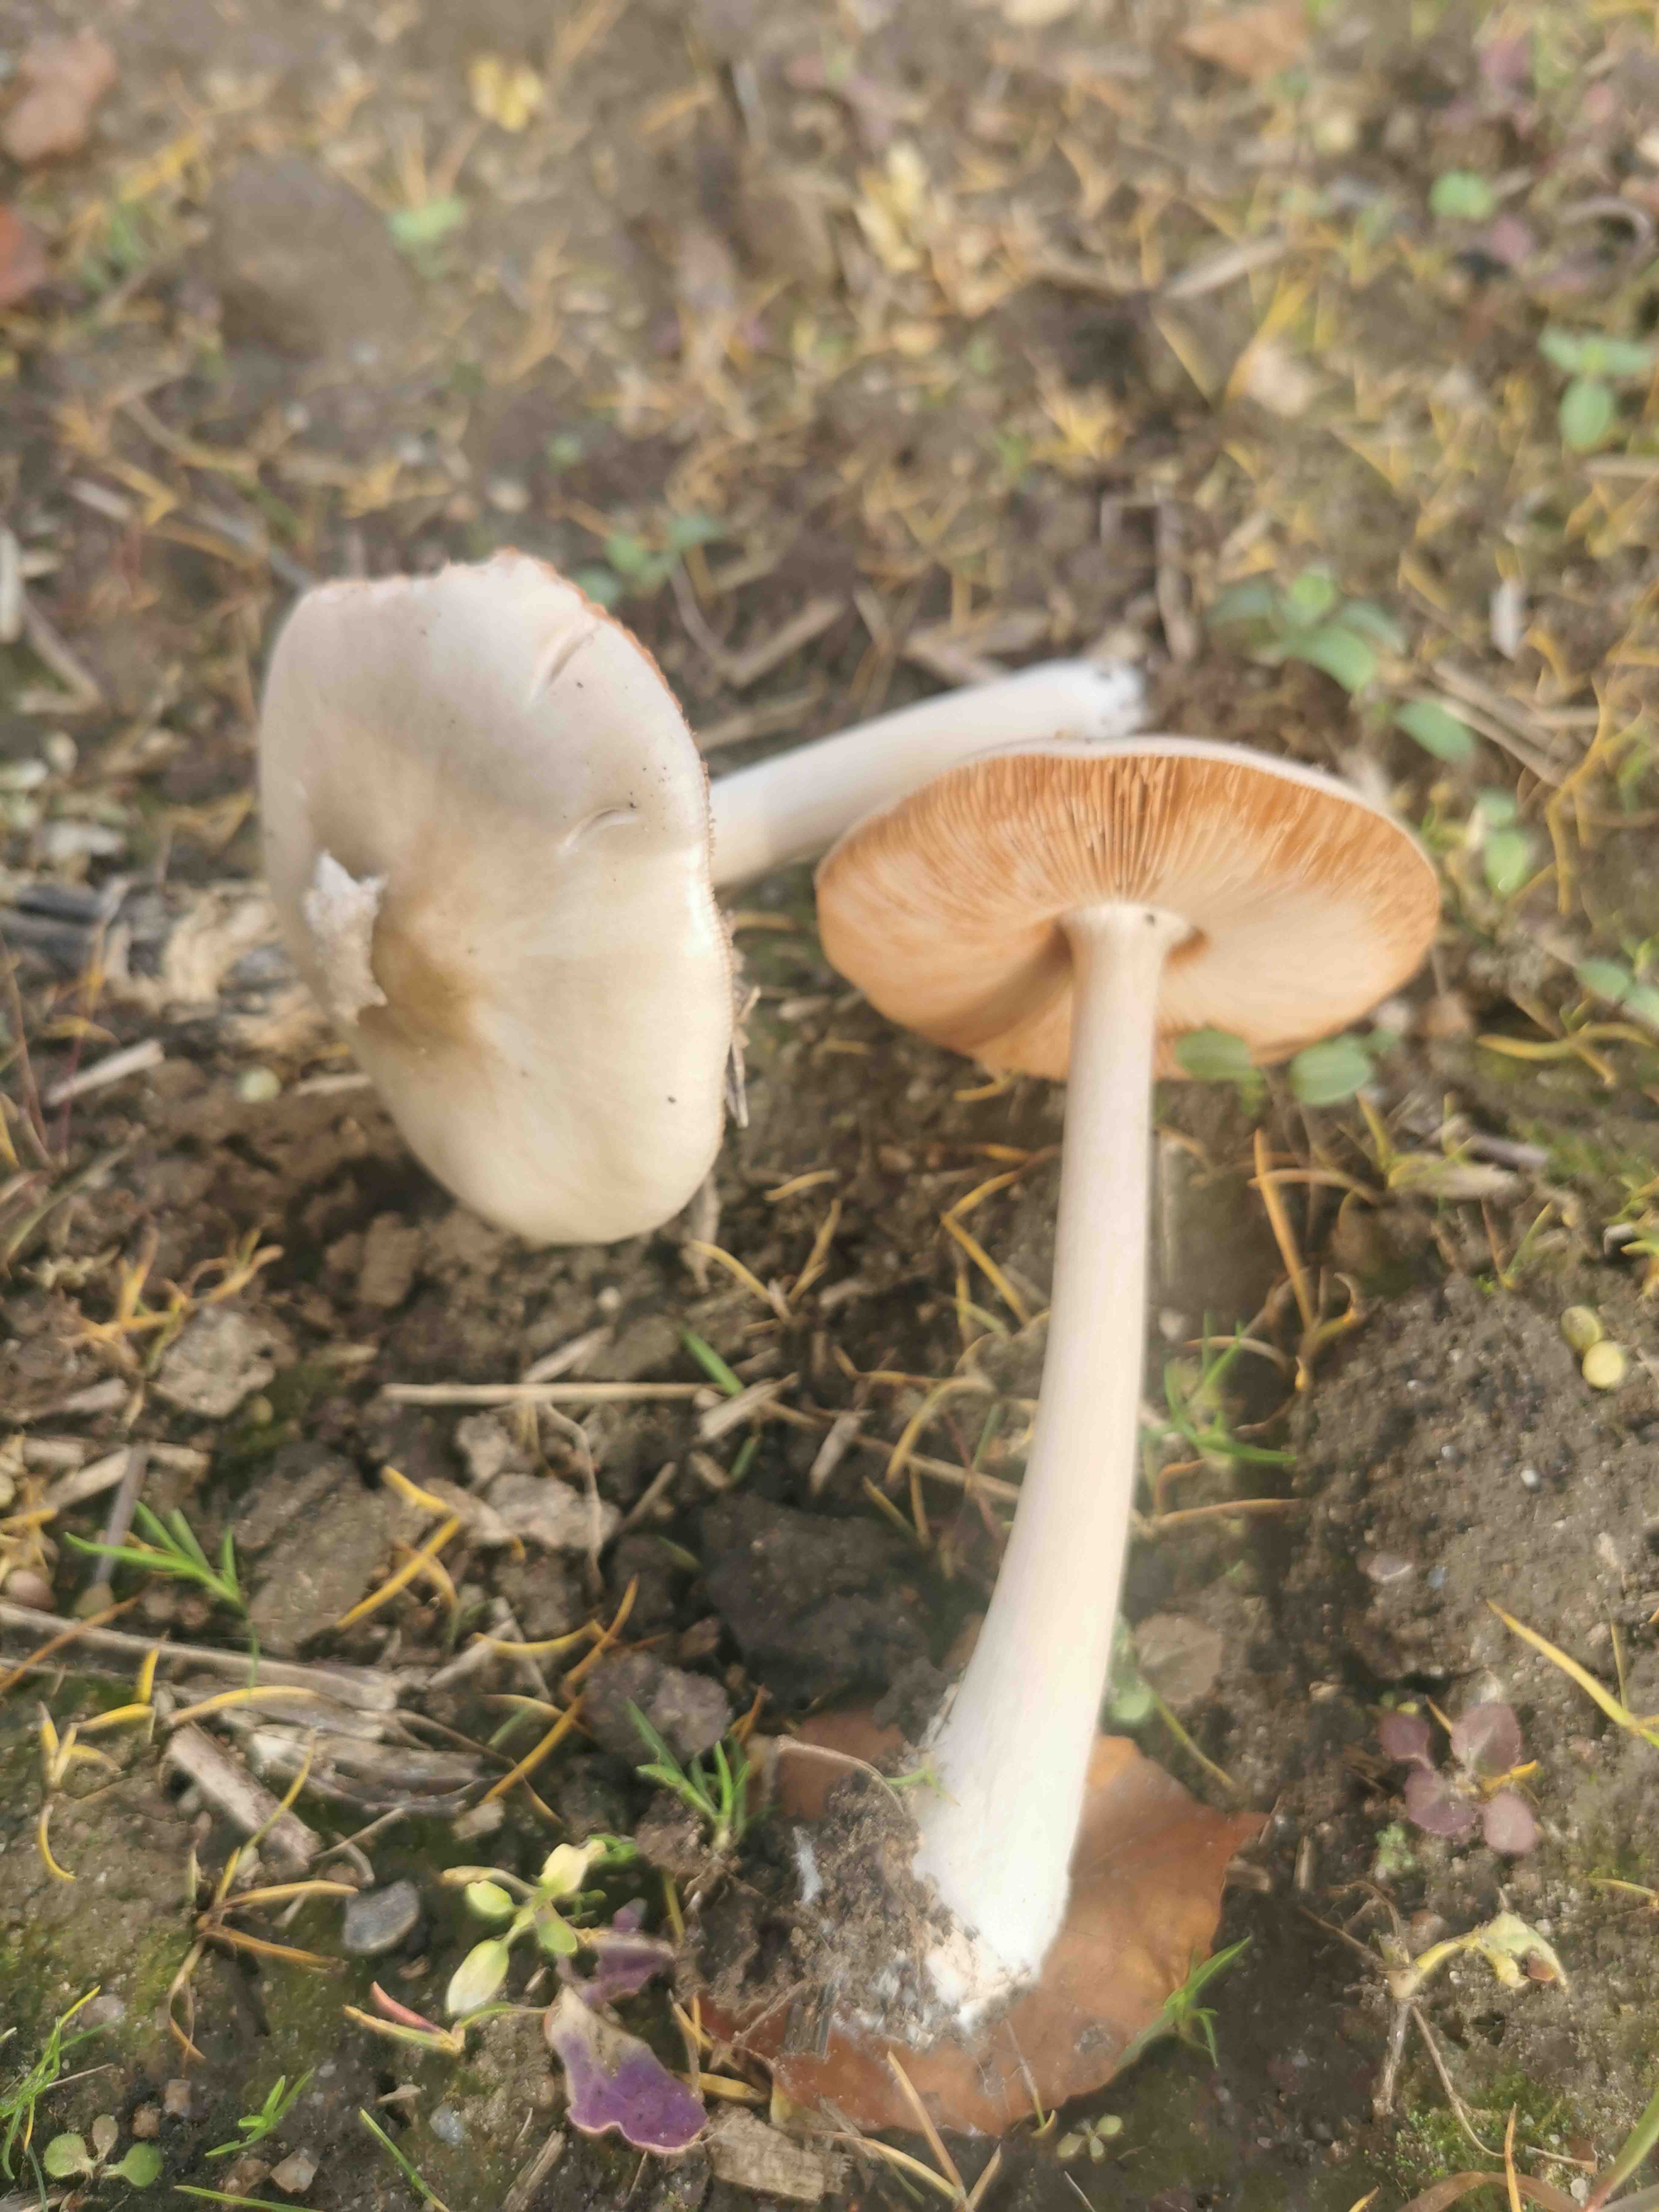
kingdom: Fungi
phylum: Basidiomycota
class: Agaricomycetes
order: Agaricales
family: Pluteaceae
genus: Volvopluteus
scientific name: Volvopluteus gloiocephalus
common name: høj posesvamp
